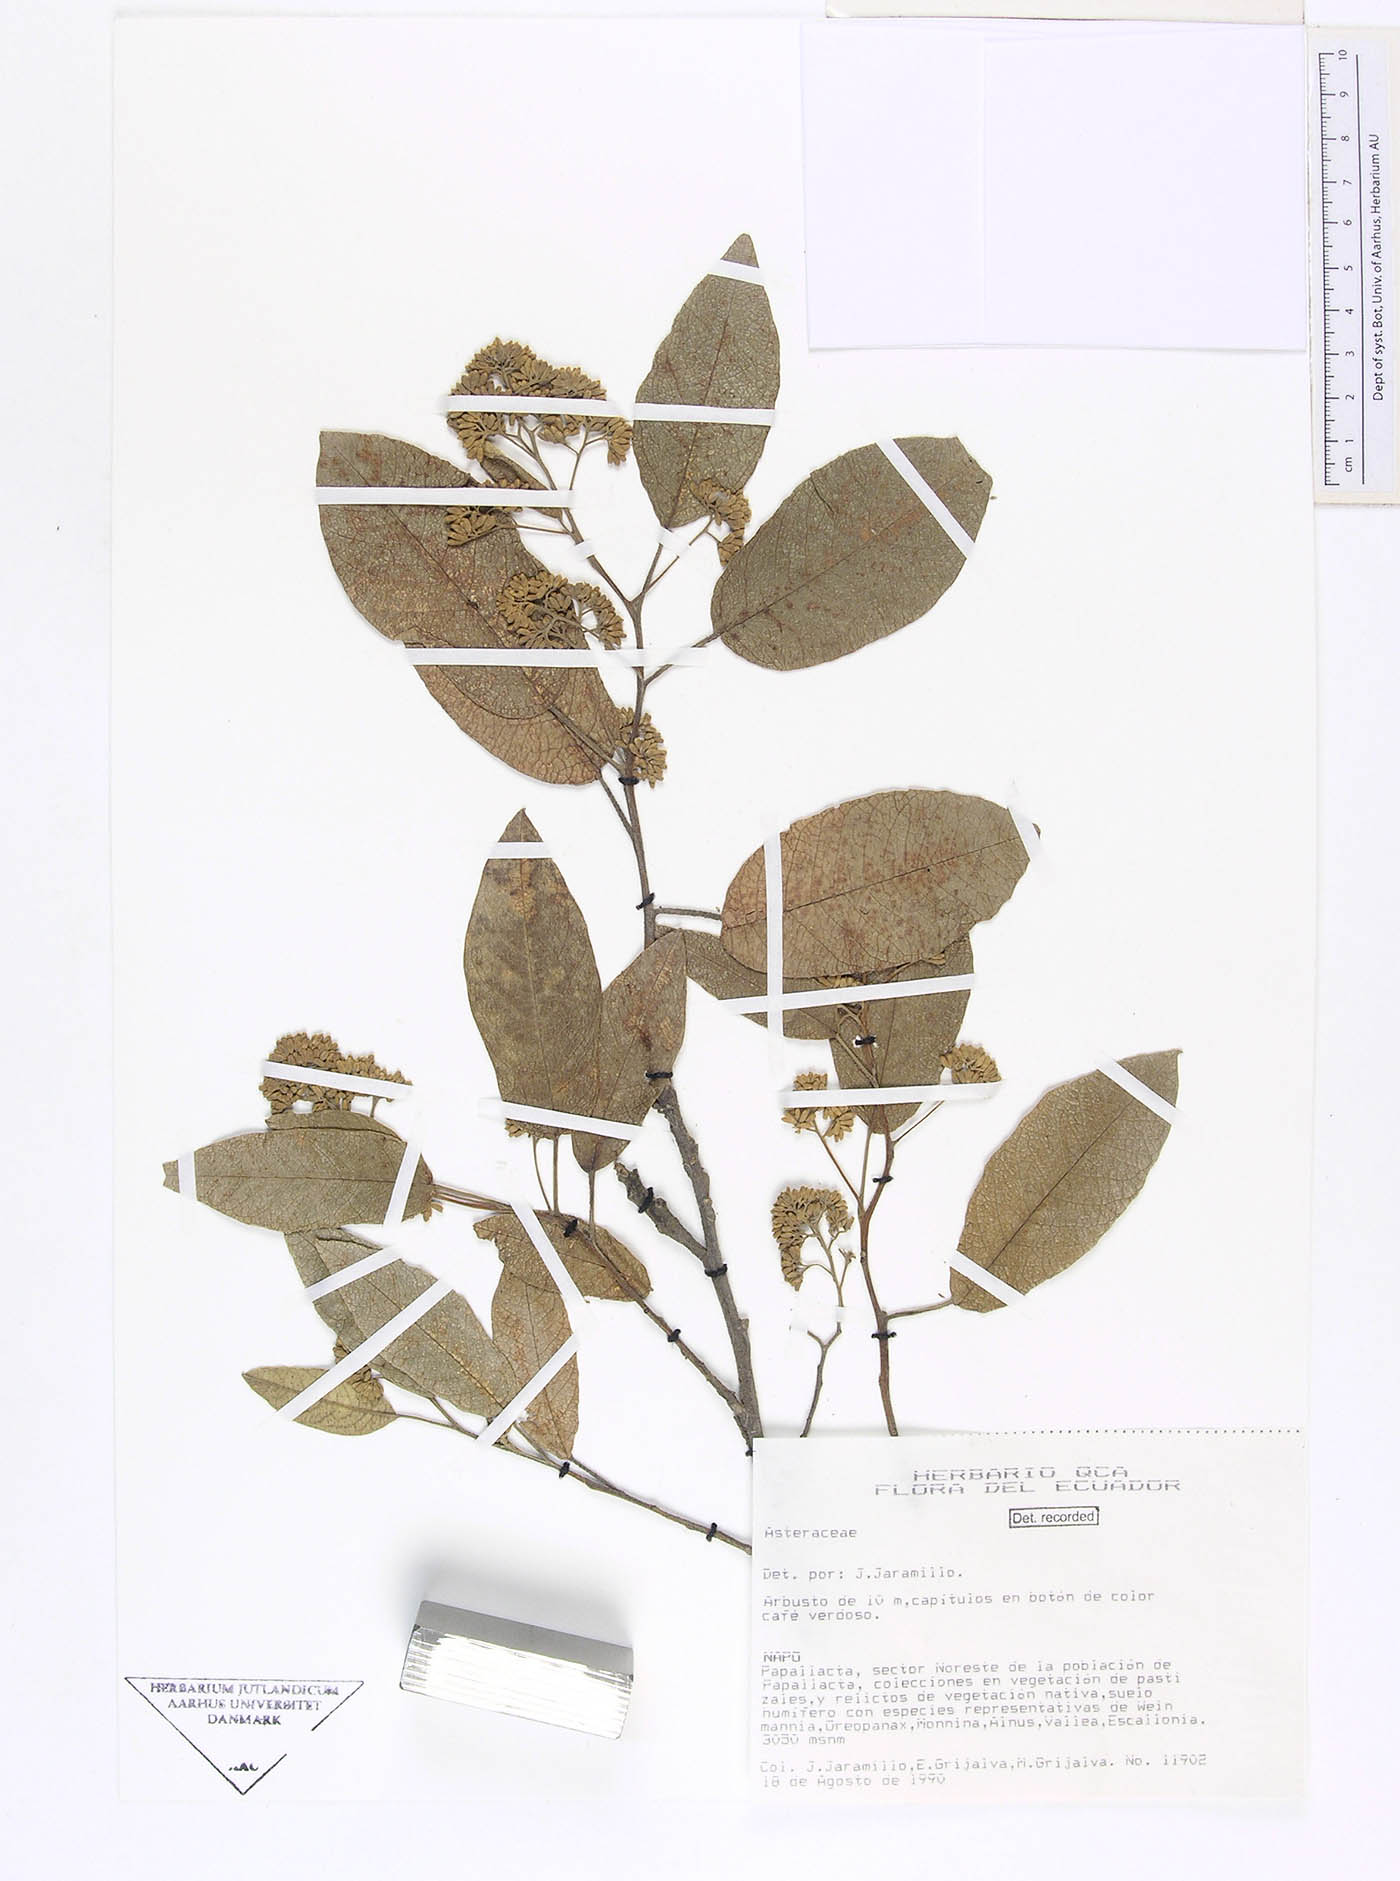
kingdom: Plantae
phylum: Tracheophyta
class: Magnoliopsida
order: Asterales
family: Asteraceae
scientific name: Asteraceae
